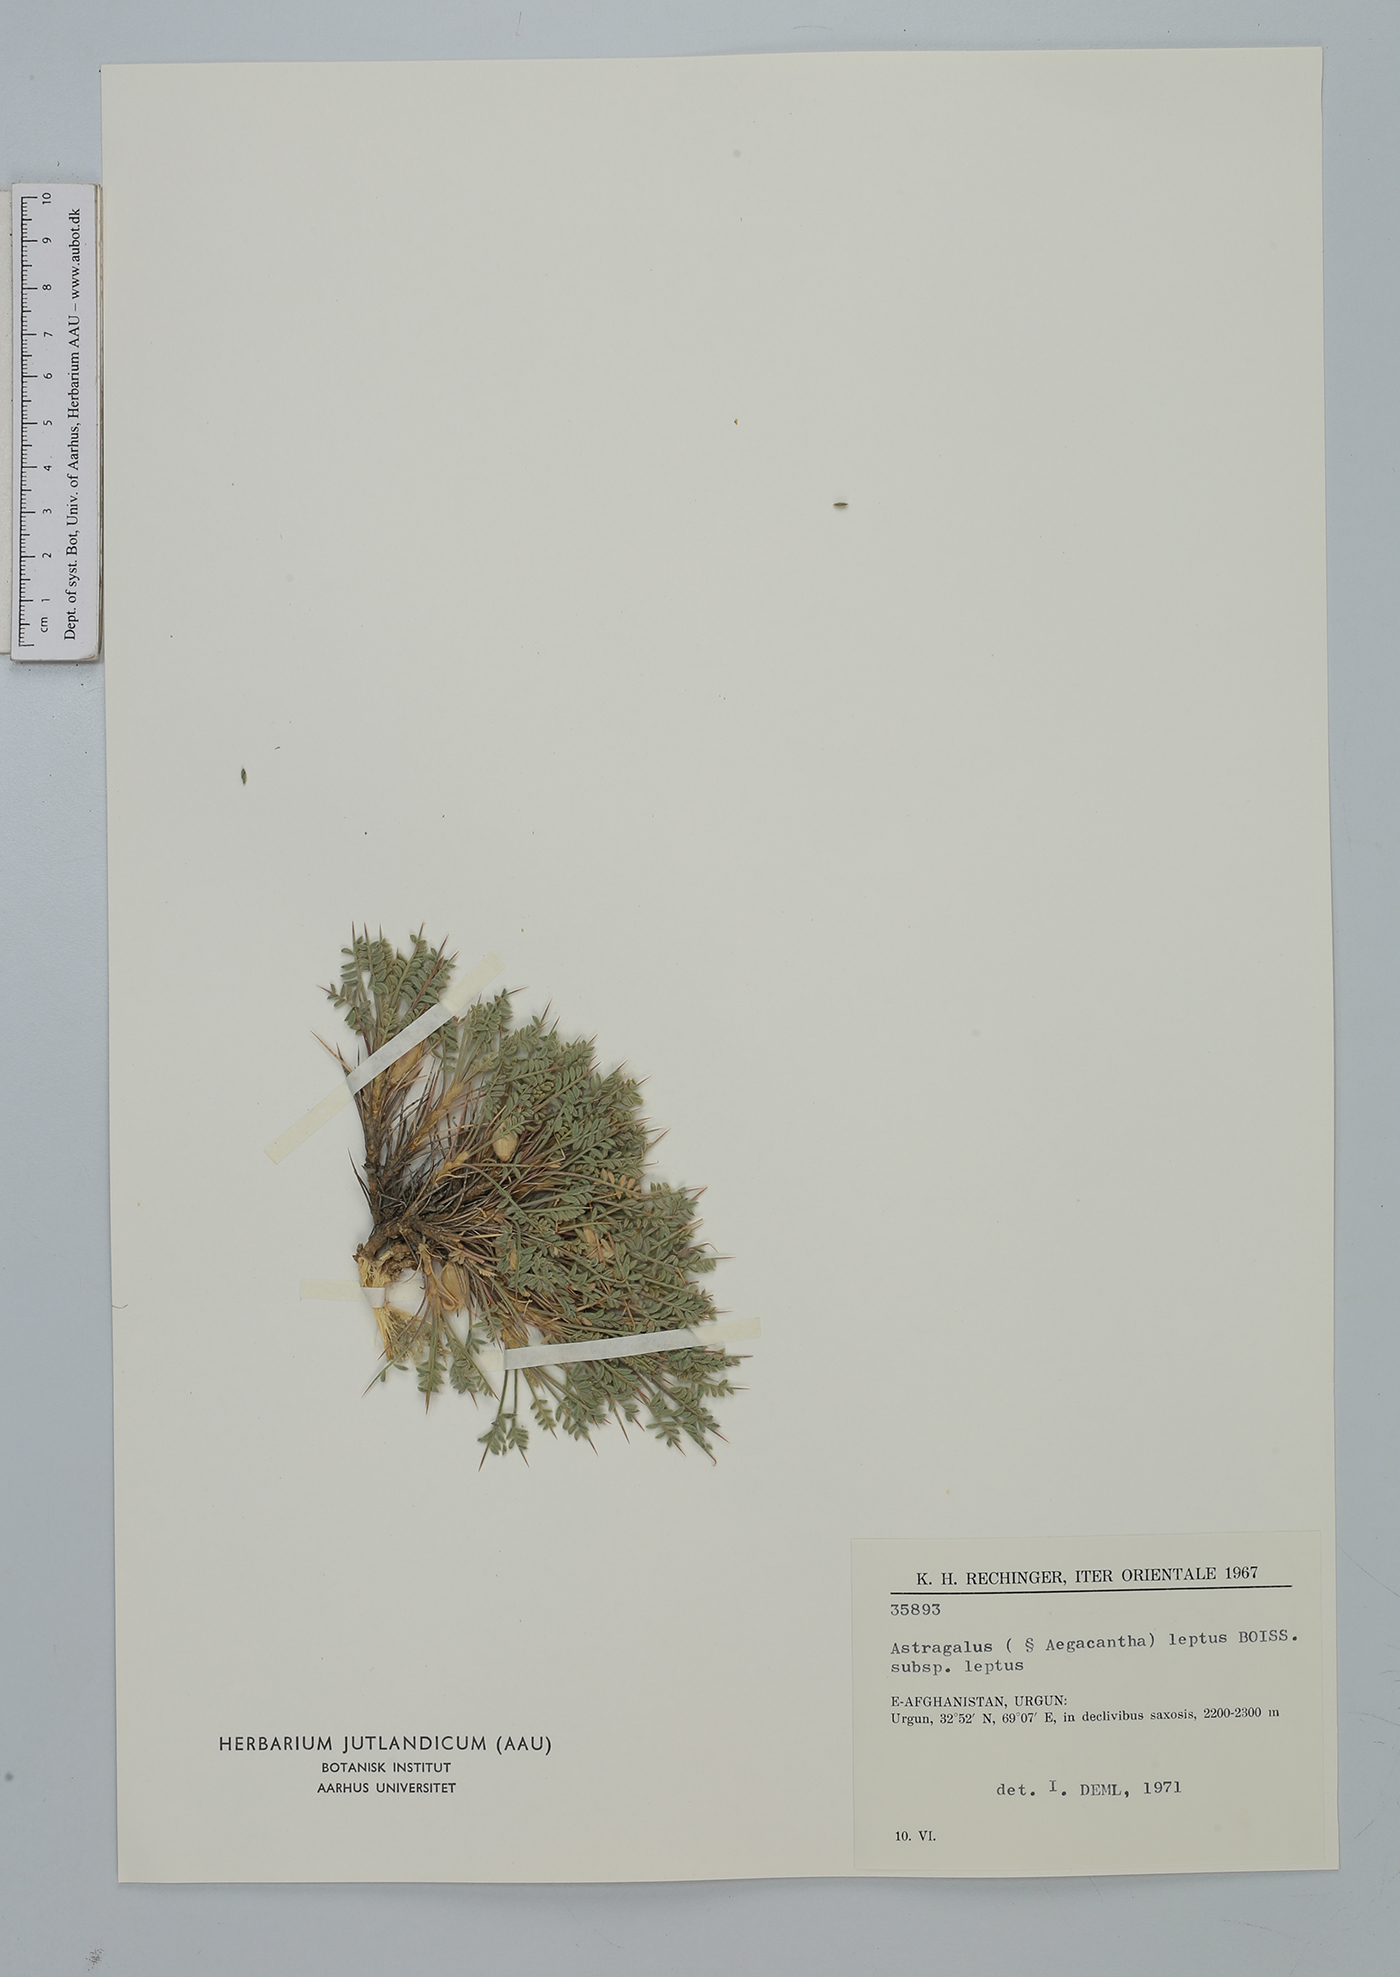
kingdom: Plantae
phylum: Tracheophyta
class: Magnoliopsida
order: Fabales
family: Fabaceae
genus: Astragalus
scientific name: Astragalus leptus
